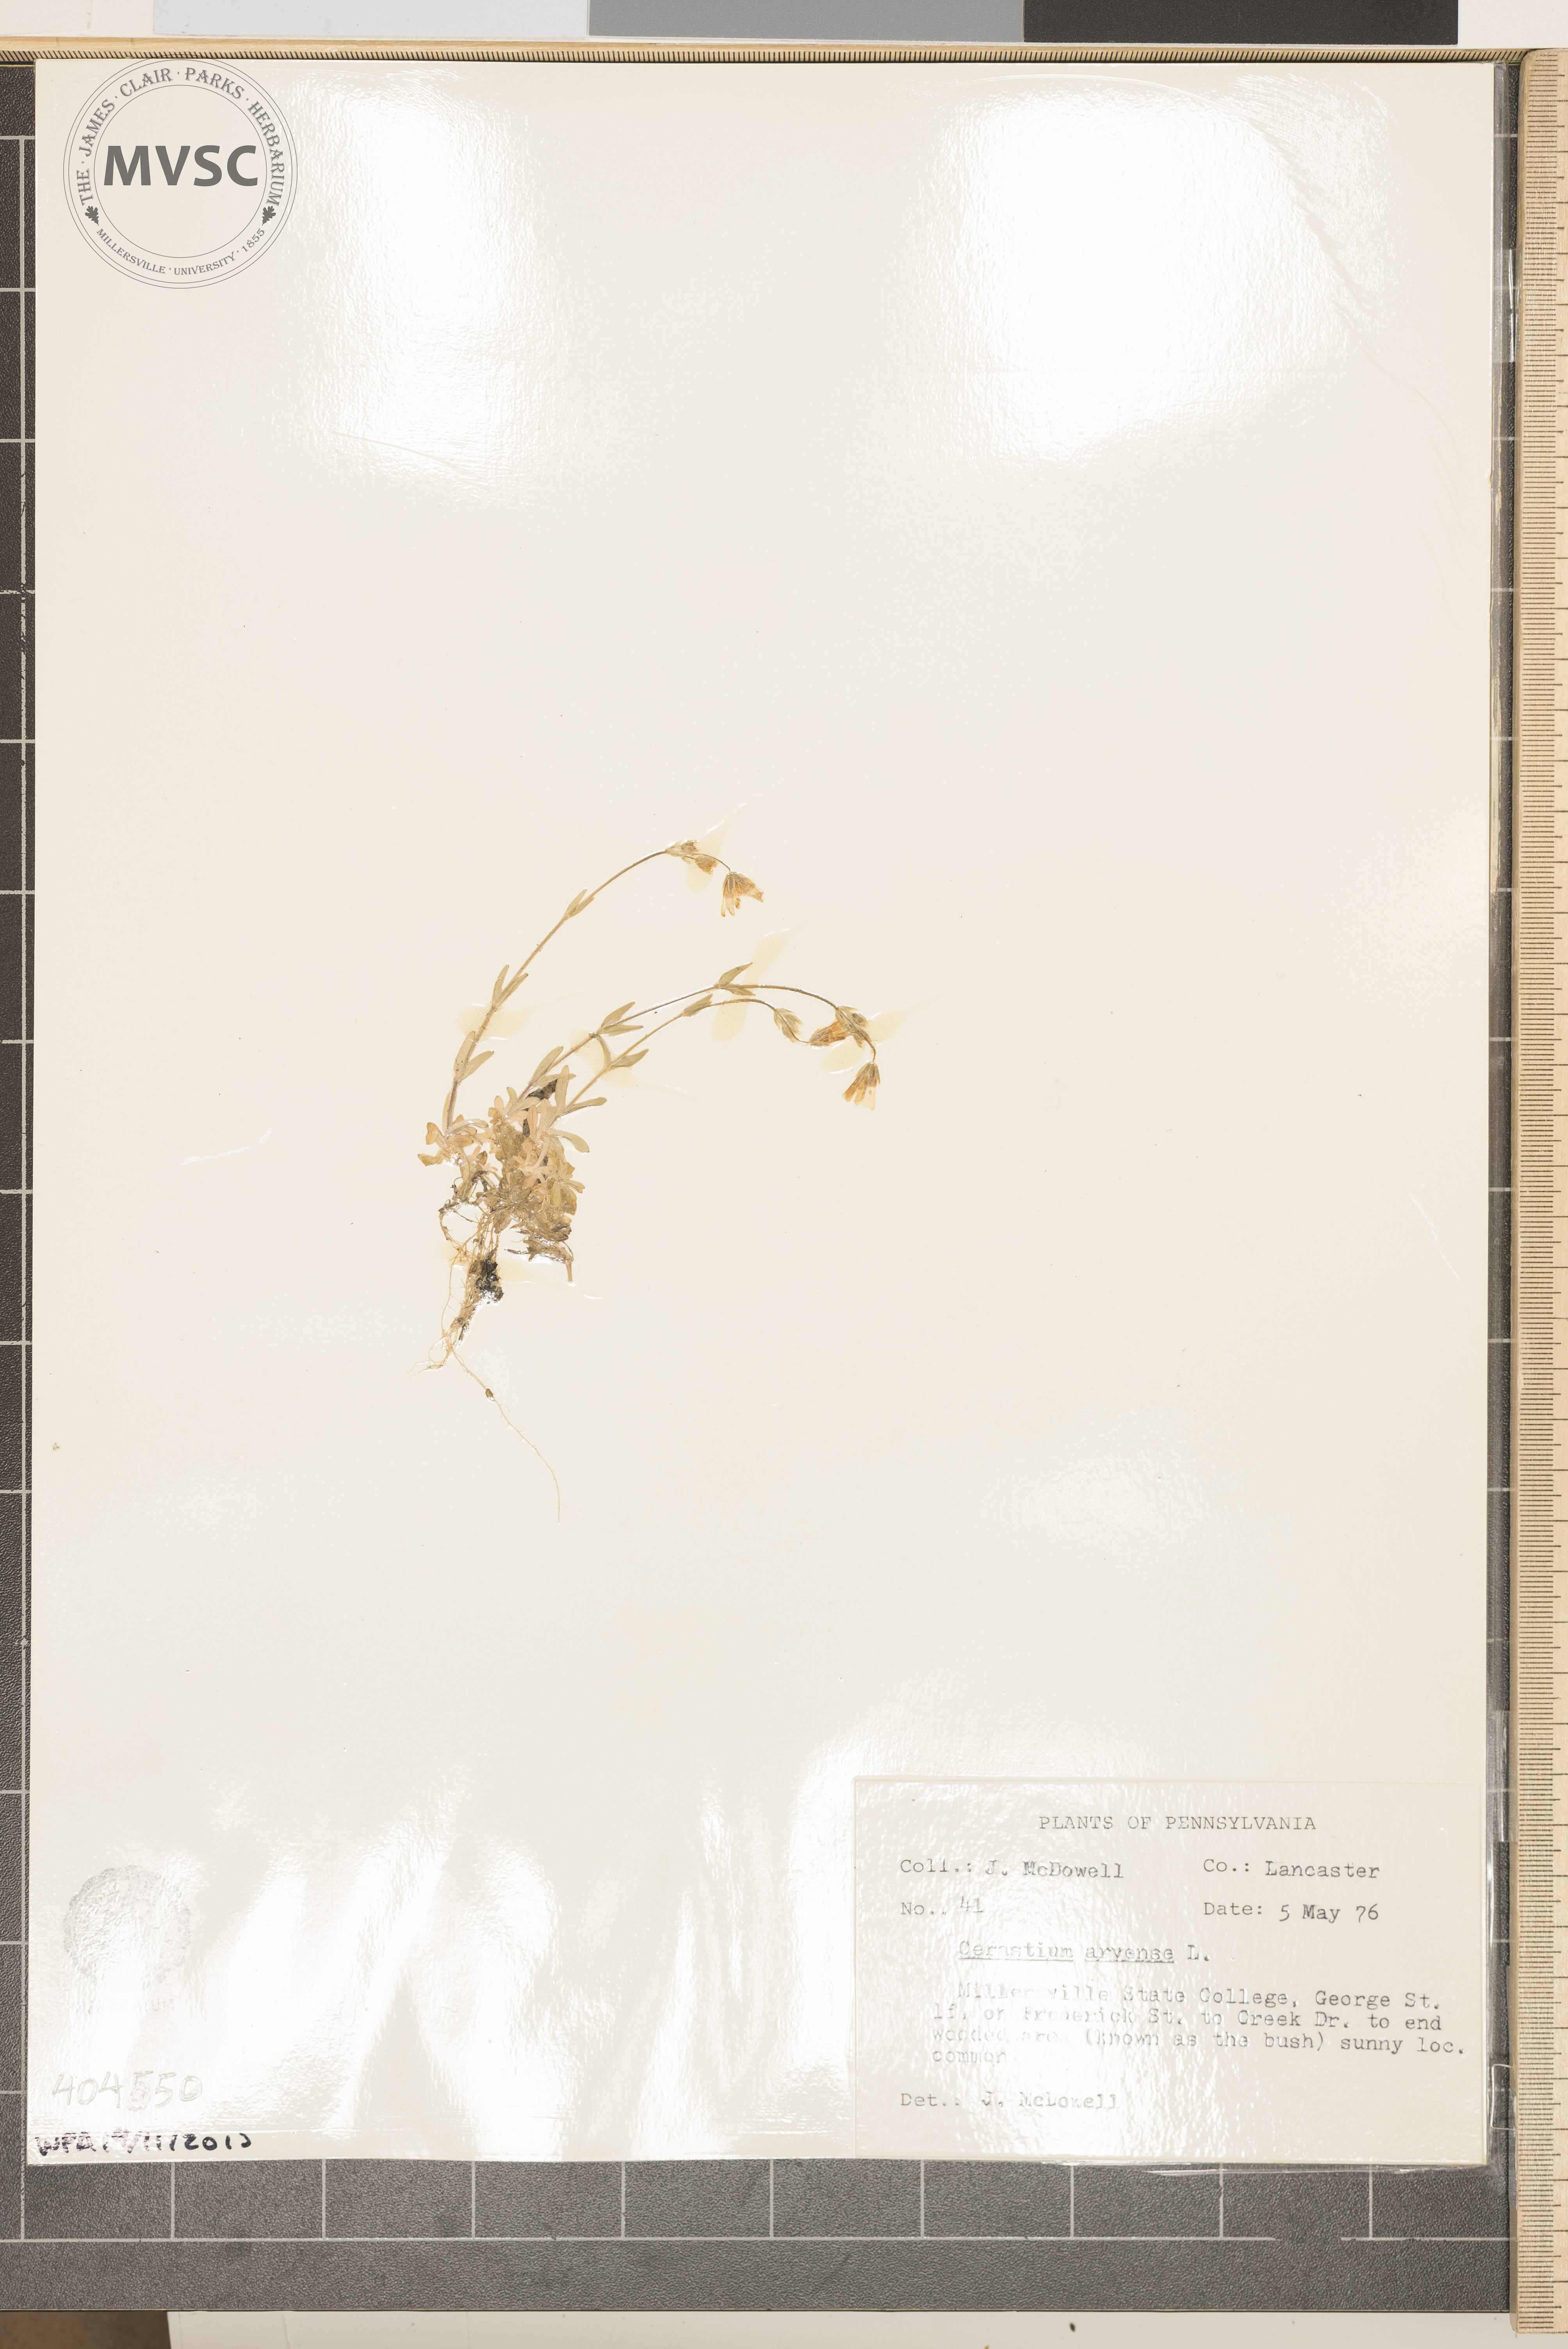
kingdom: Plantae
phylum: Tracheophyta
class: Magnoliopsida
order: Caryophyllales
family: Caryophyllaceae
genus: Cerastium
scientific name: Cerastium arvense
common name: Field mouse-ear
